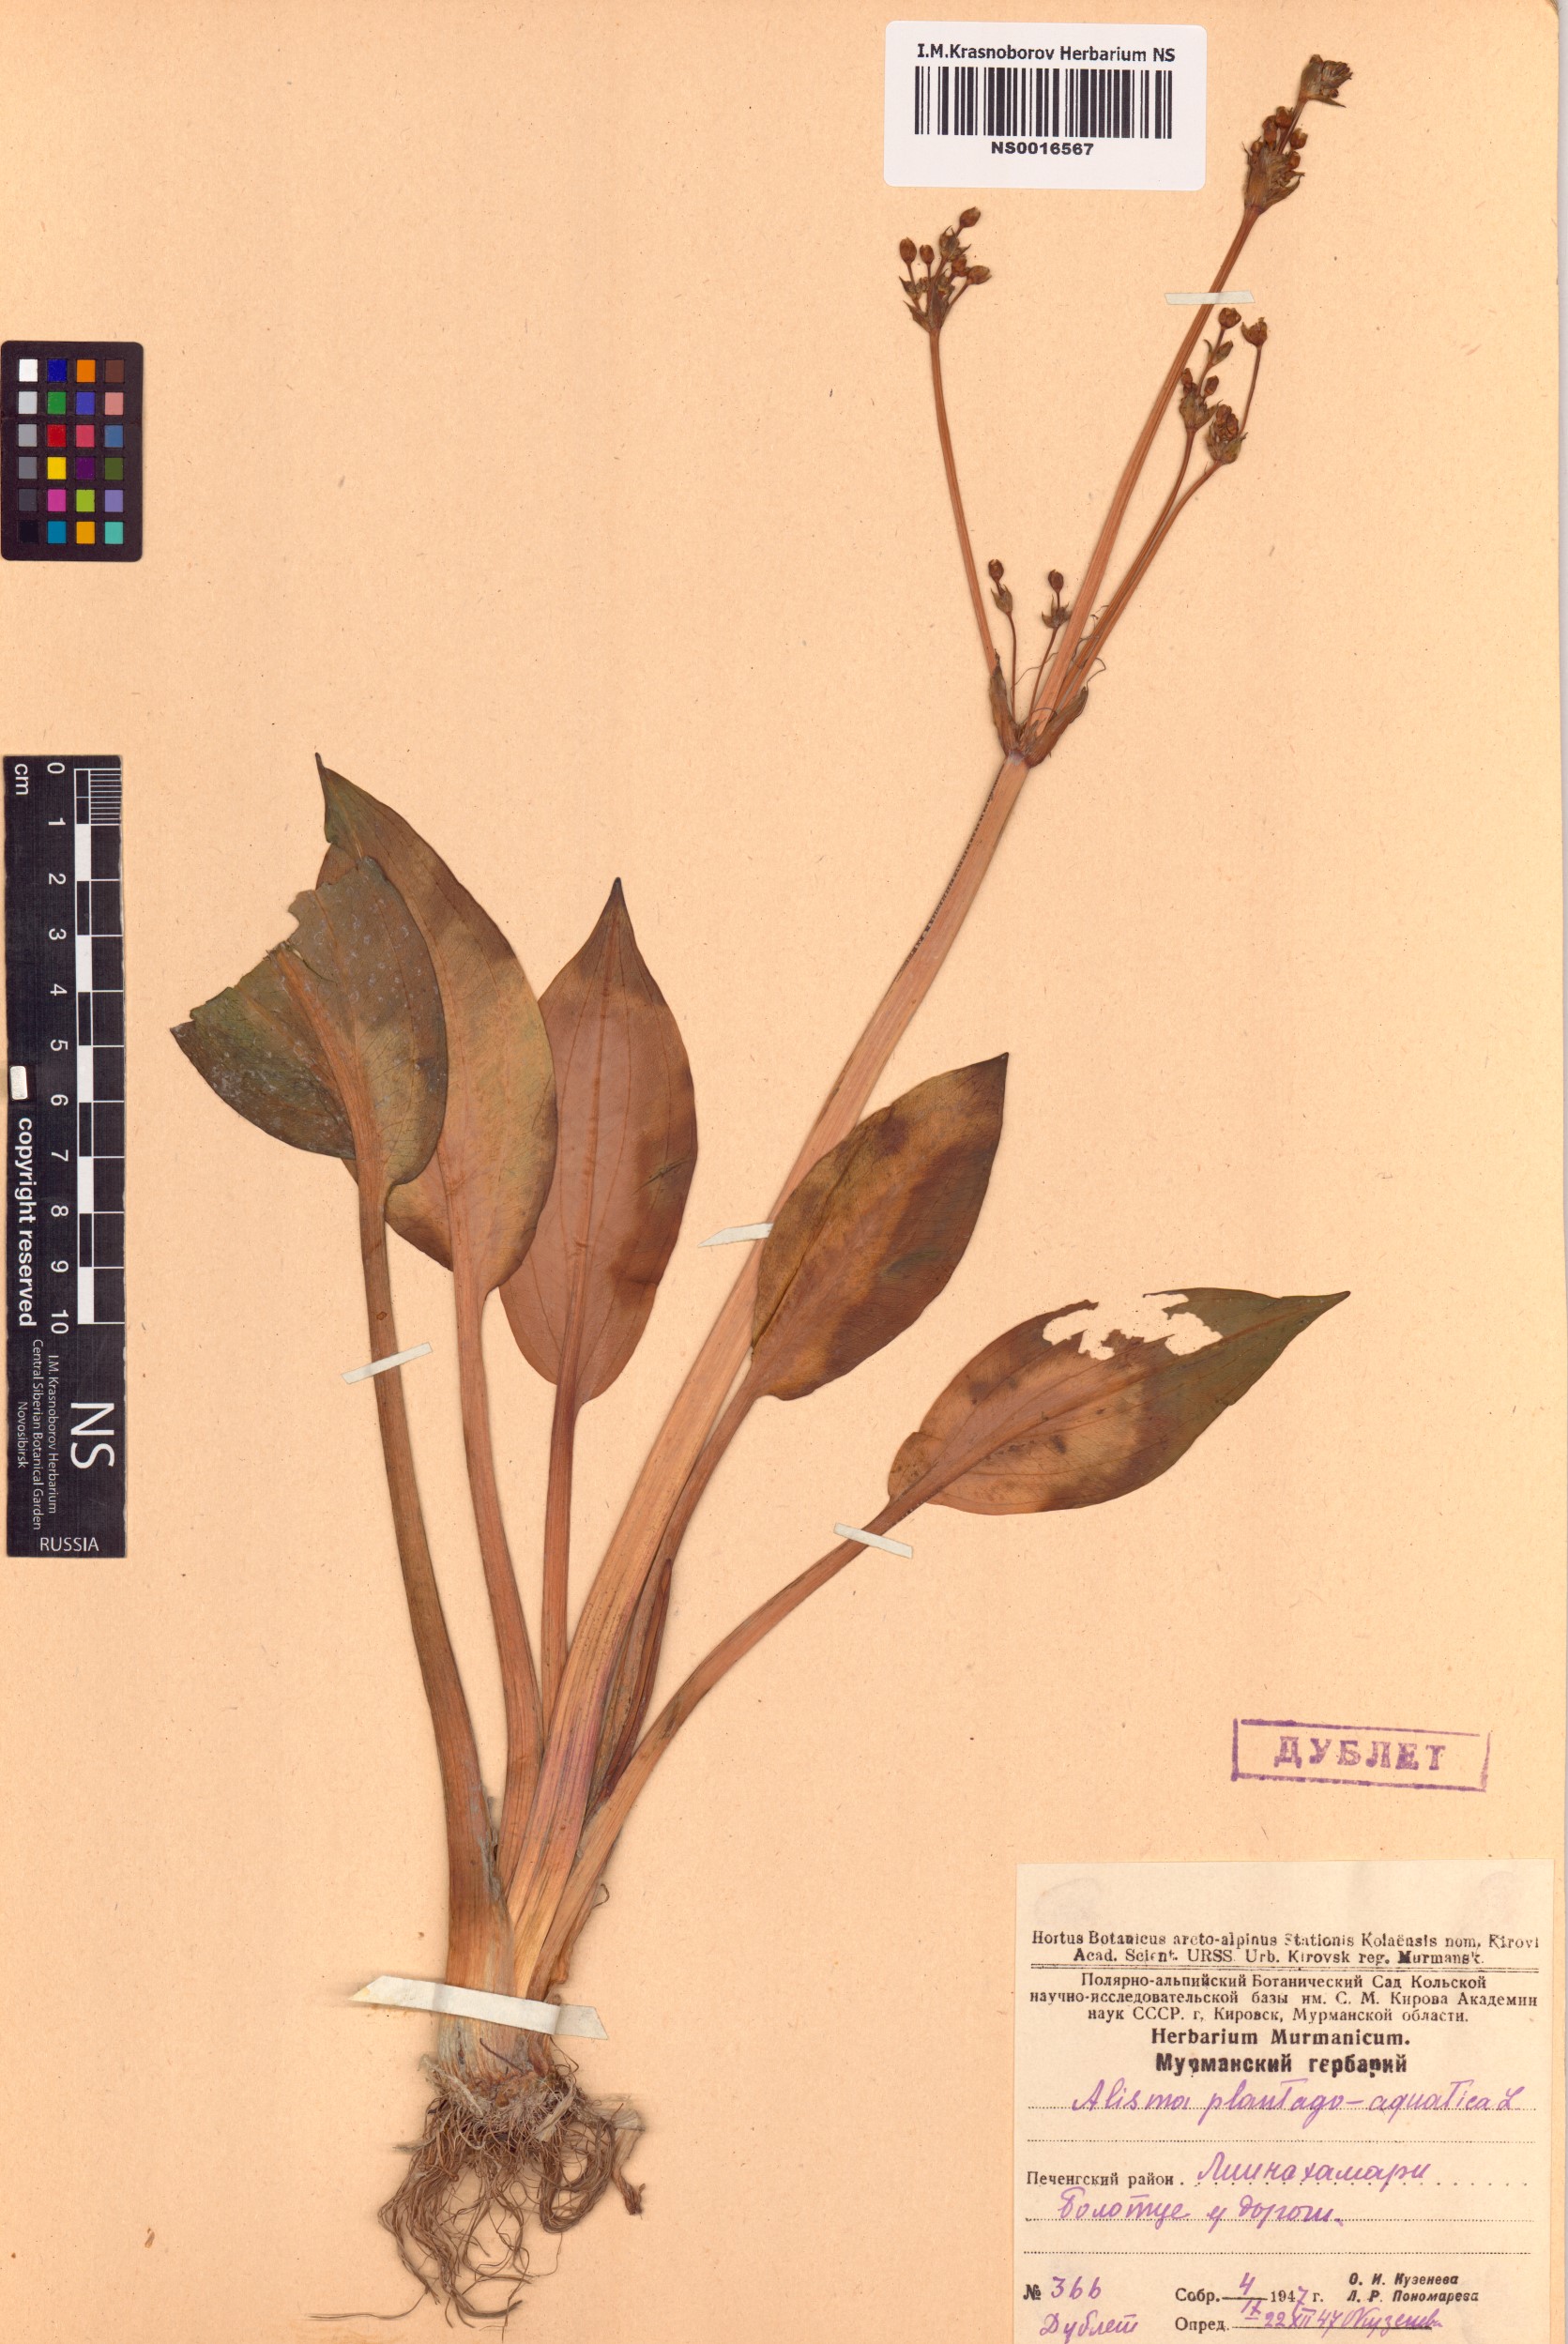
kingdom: Plantae
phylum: Tracheophyta
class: Liliopsida
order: Alismatales
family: Alismataceae
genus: Alisma
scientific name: Alisma plantago-aquatica
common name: Water-plantain
